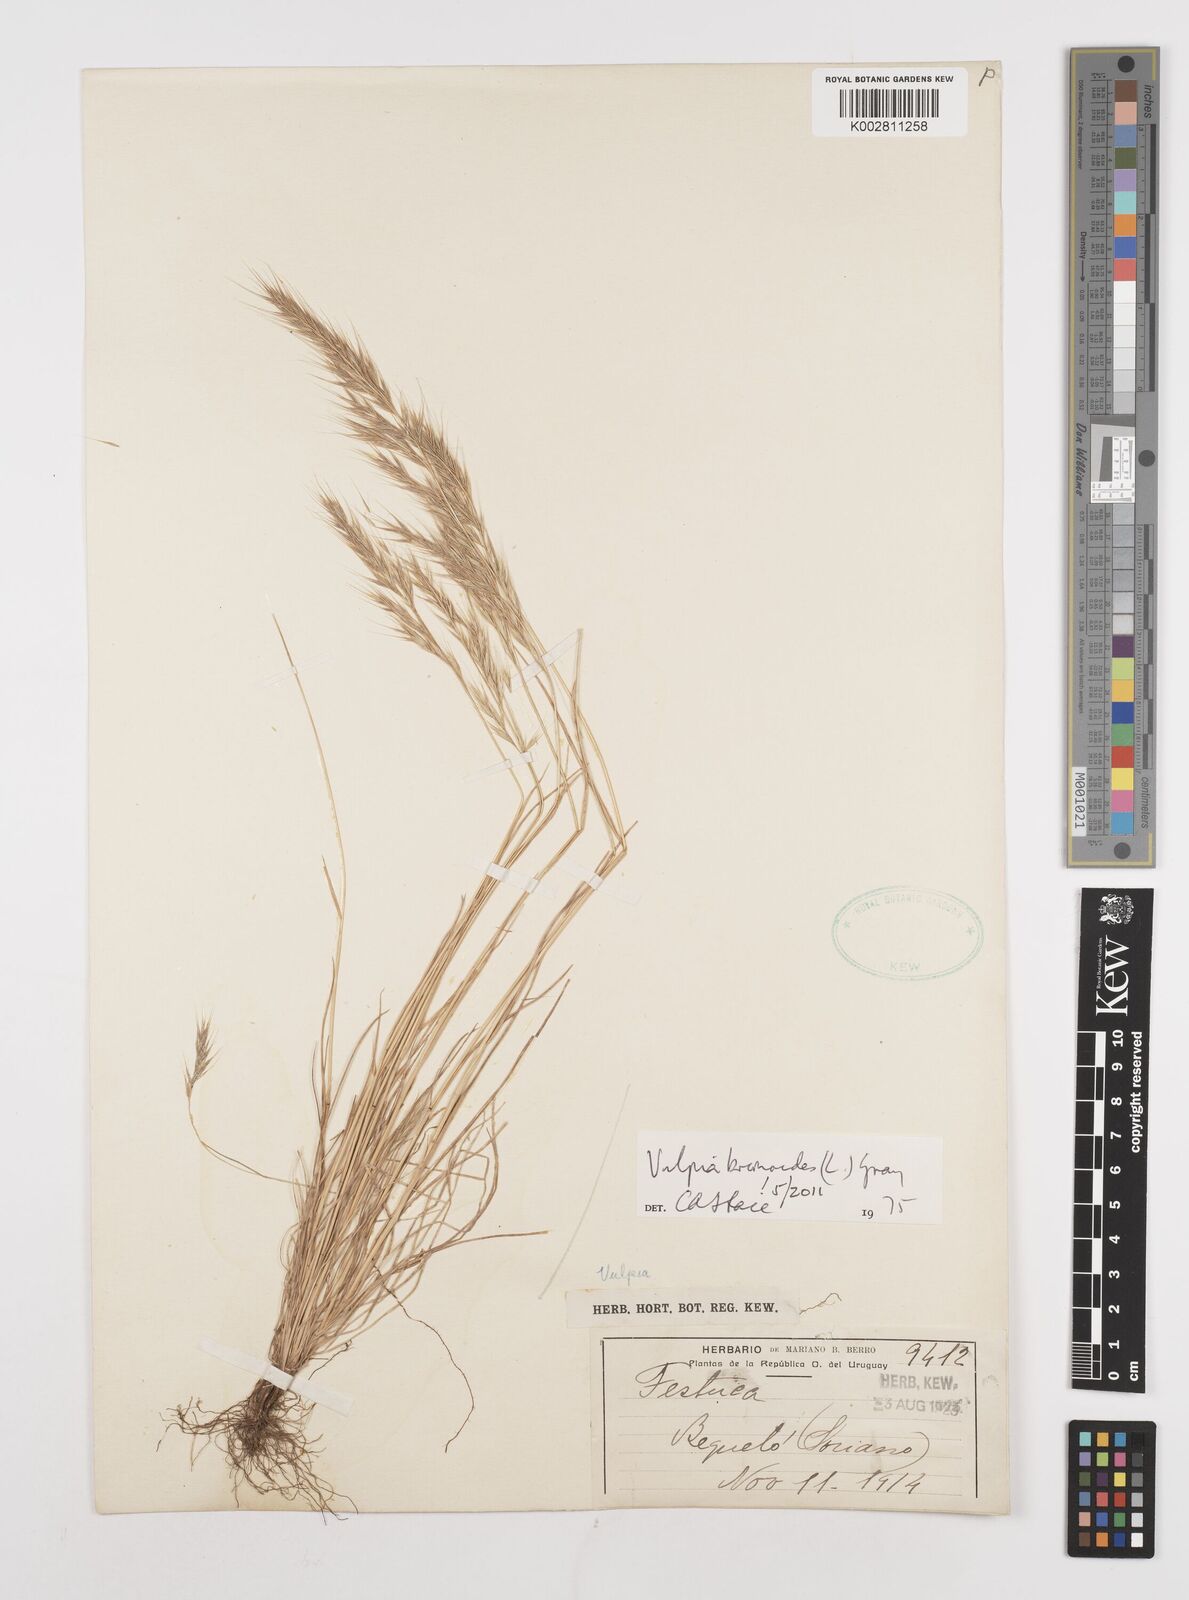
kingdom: Plantae
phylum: Tracheophyta
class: Liliopsida
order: Poales
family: Poaceae
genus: Festuca
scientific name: Festuca bromoides
